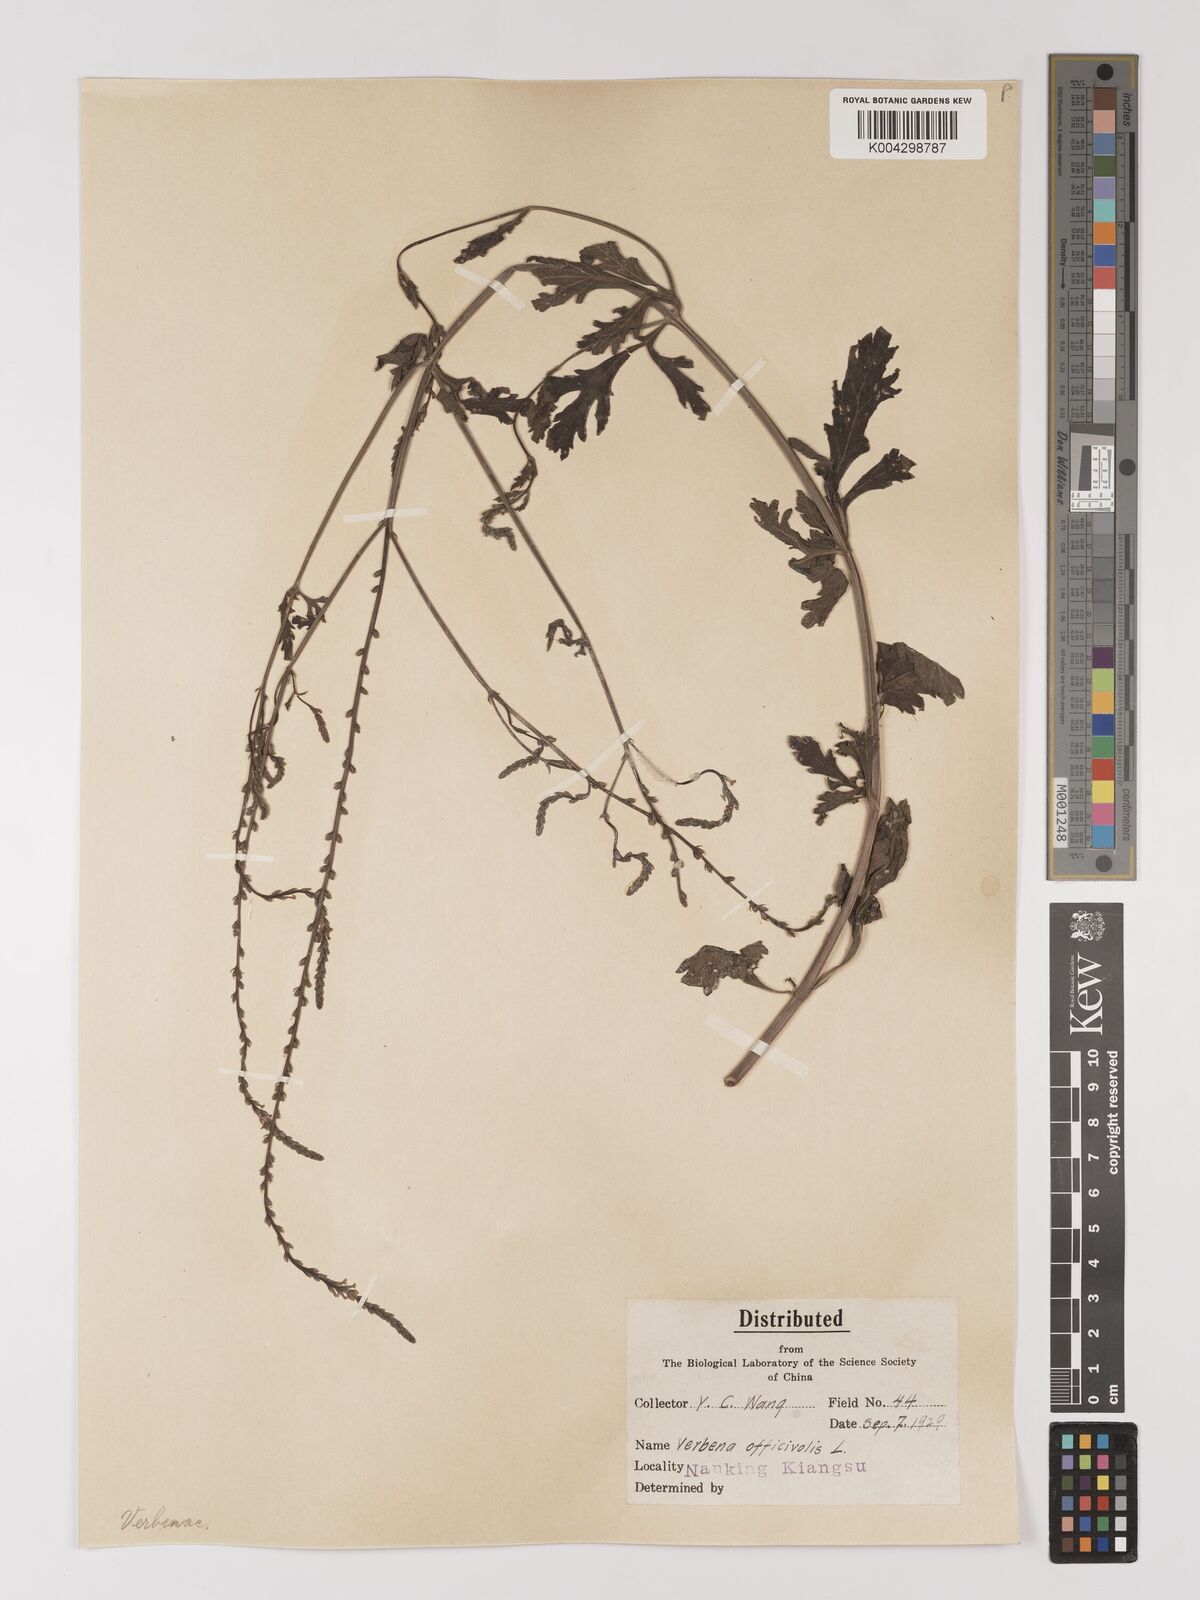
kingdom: Plantae
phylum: Tracheophyta
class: Magnoliopsida
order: Lamiales
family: Verbenaceae
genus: Verbena
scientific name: Verbena officinalis
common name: Vervain
